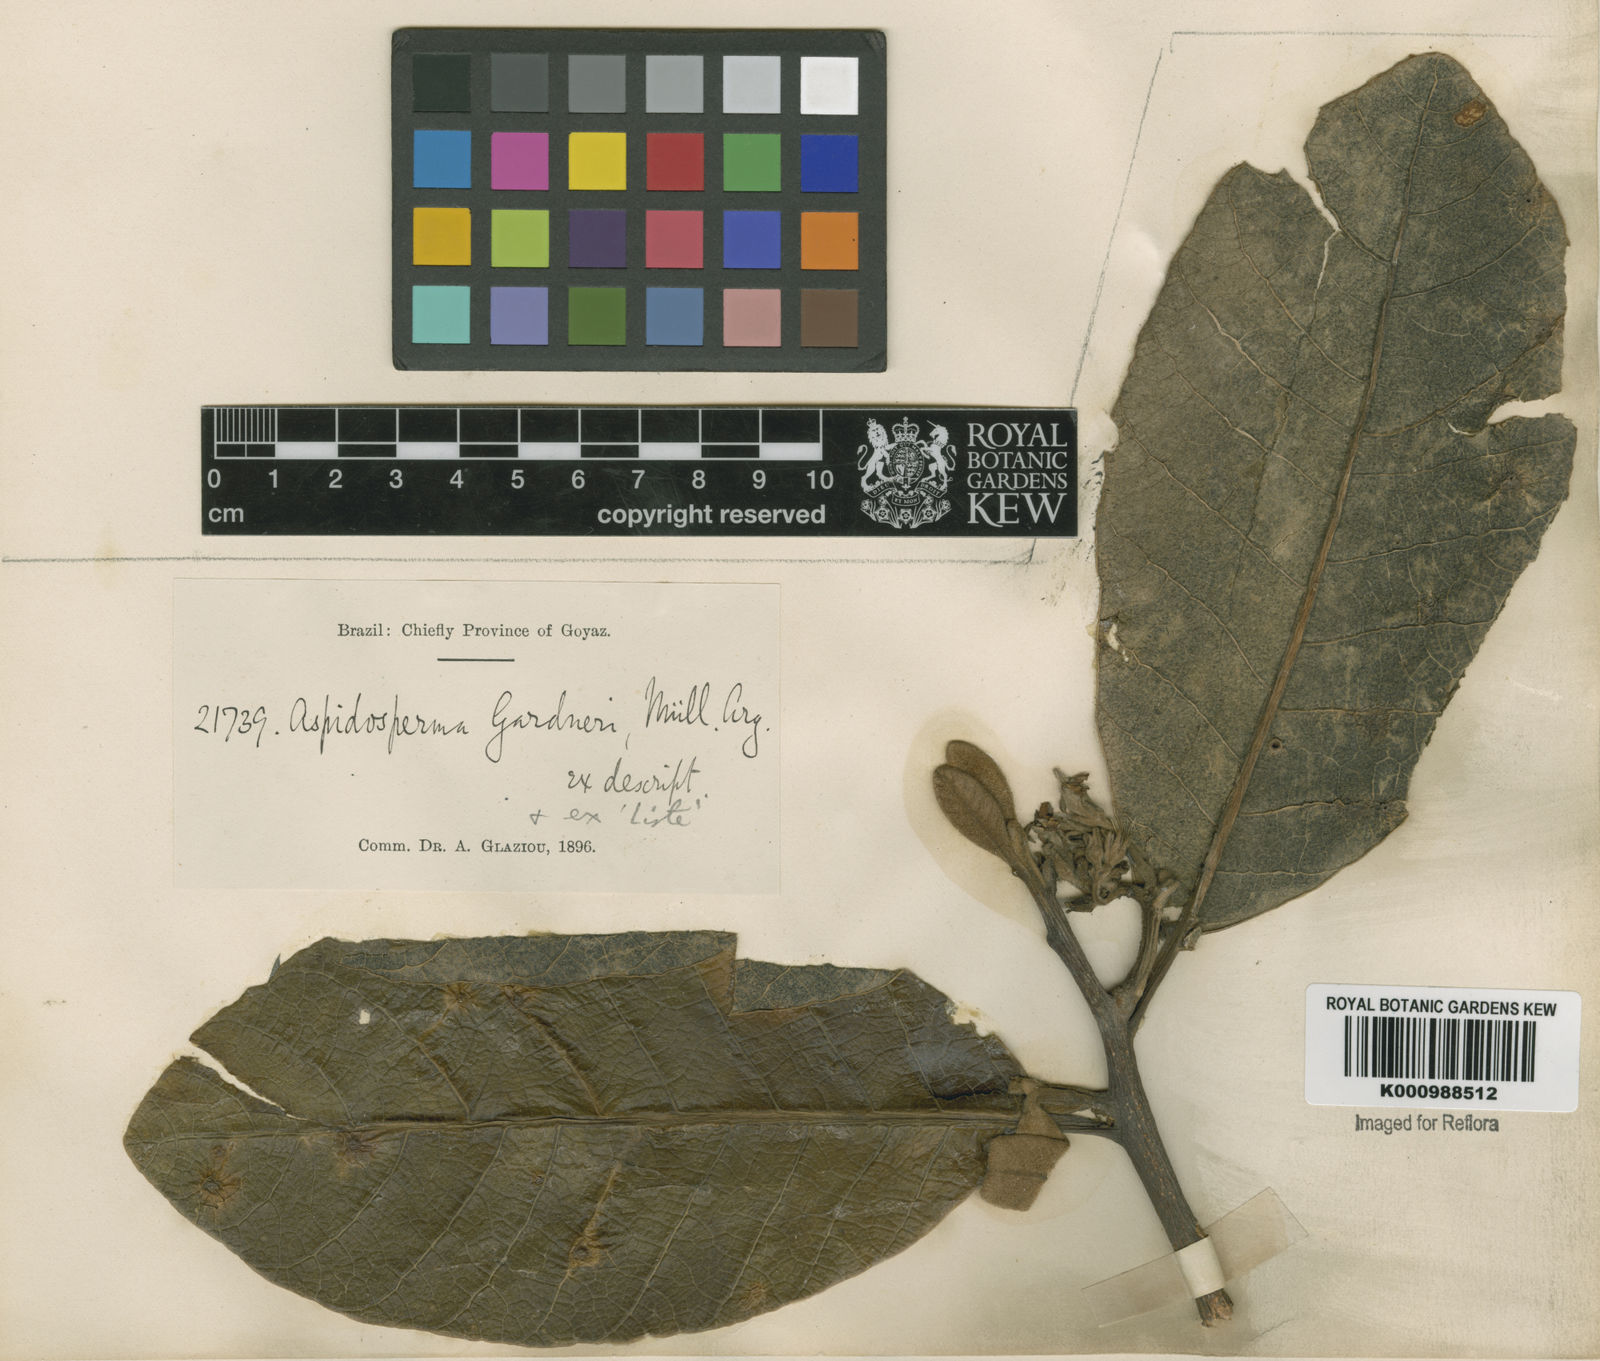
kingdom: Plantae
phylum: Tracheophyta
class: Magnoliopsida
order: Gentianales
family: Apocynaceae
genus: Aspidosperma
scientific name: Aspidosperma macrocarpon
